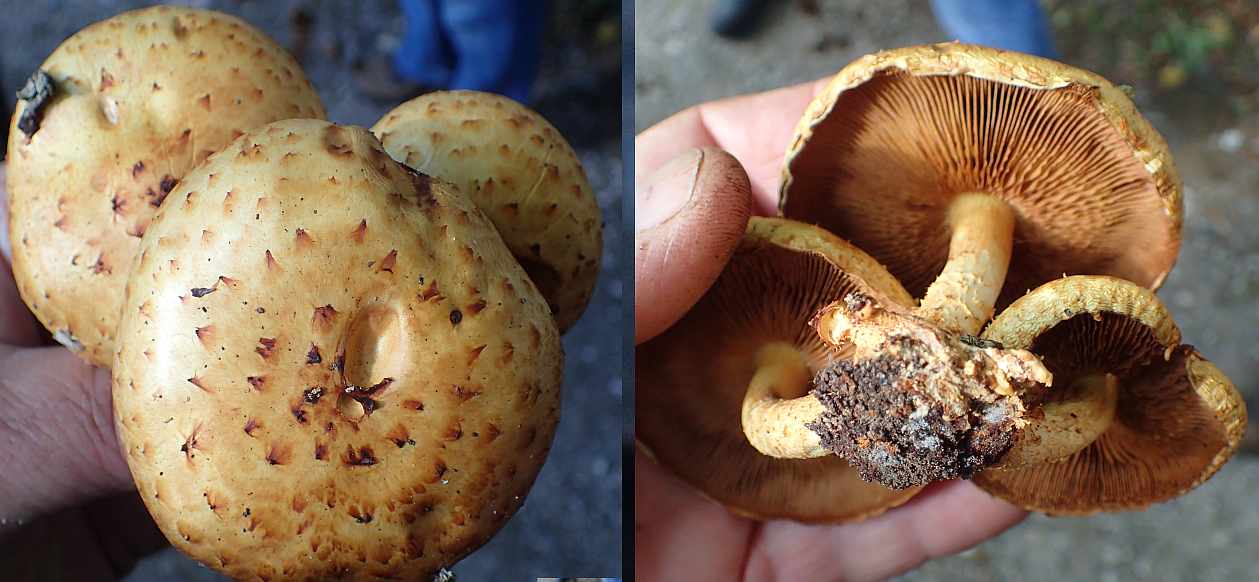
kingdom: Fungi
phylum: Basidiomycota
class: Agaricomycetes
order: Agaricales
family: Strophariaceae
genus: Pholiota
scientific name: Pholiota
